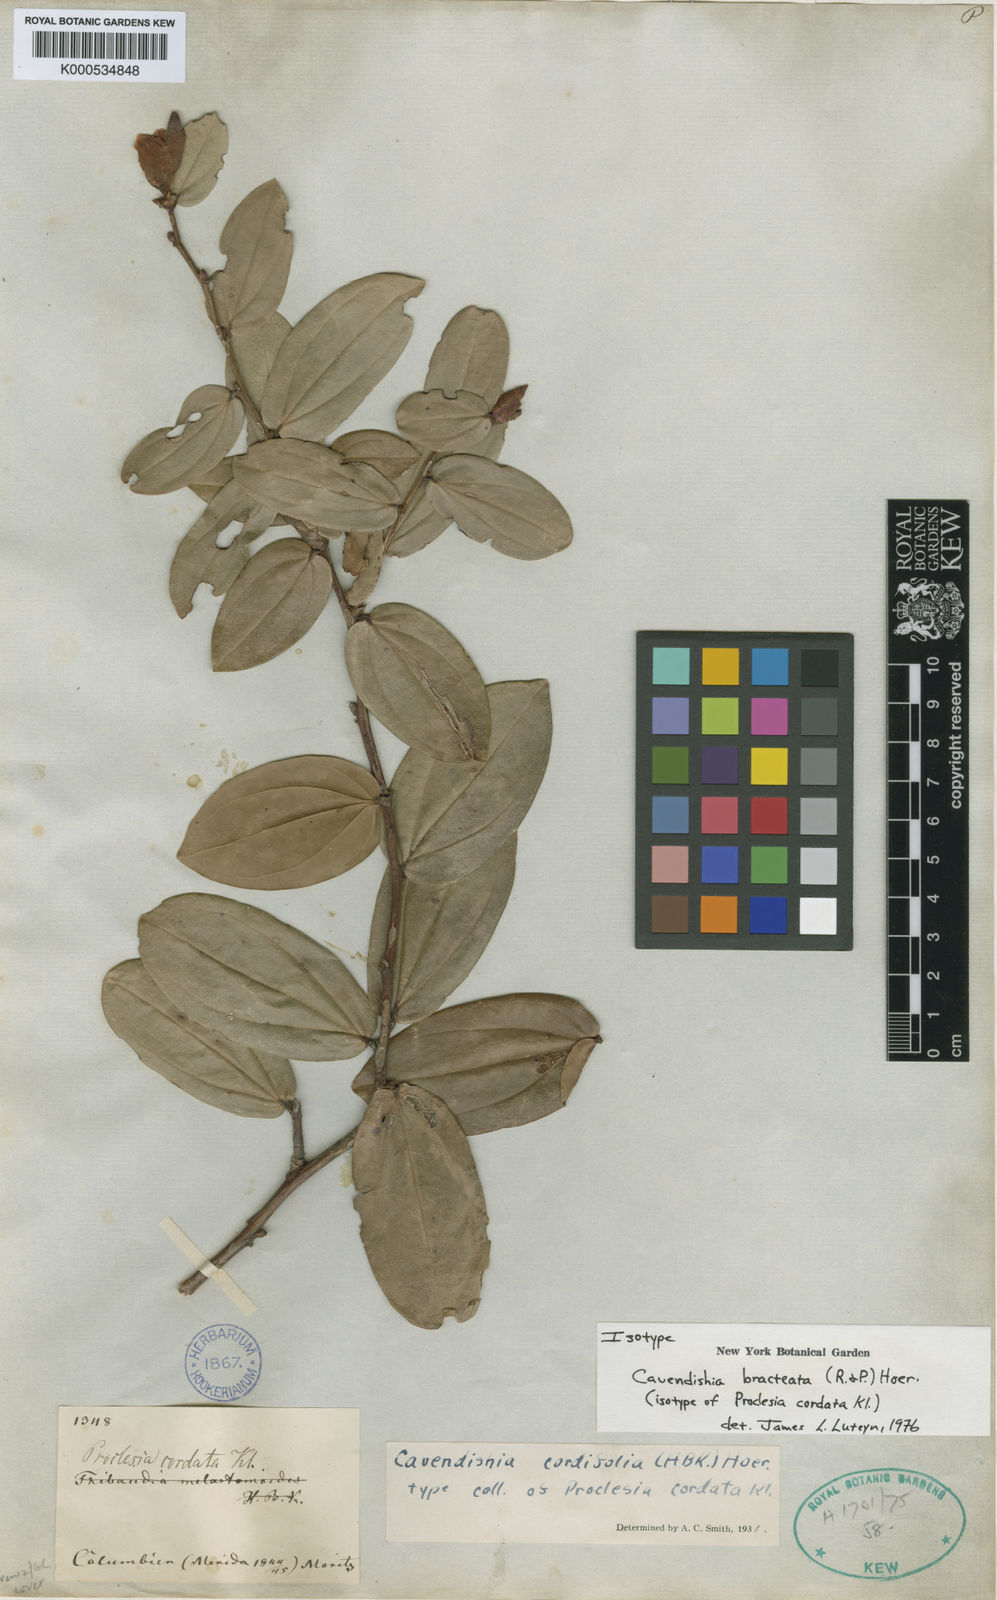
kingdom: Plantae
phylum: Tracheophyta
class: Magnoliopsida
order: Ericales
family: Ericaceae
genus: Cavendishia
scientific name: Cavendishia bracteata
